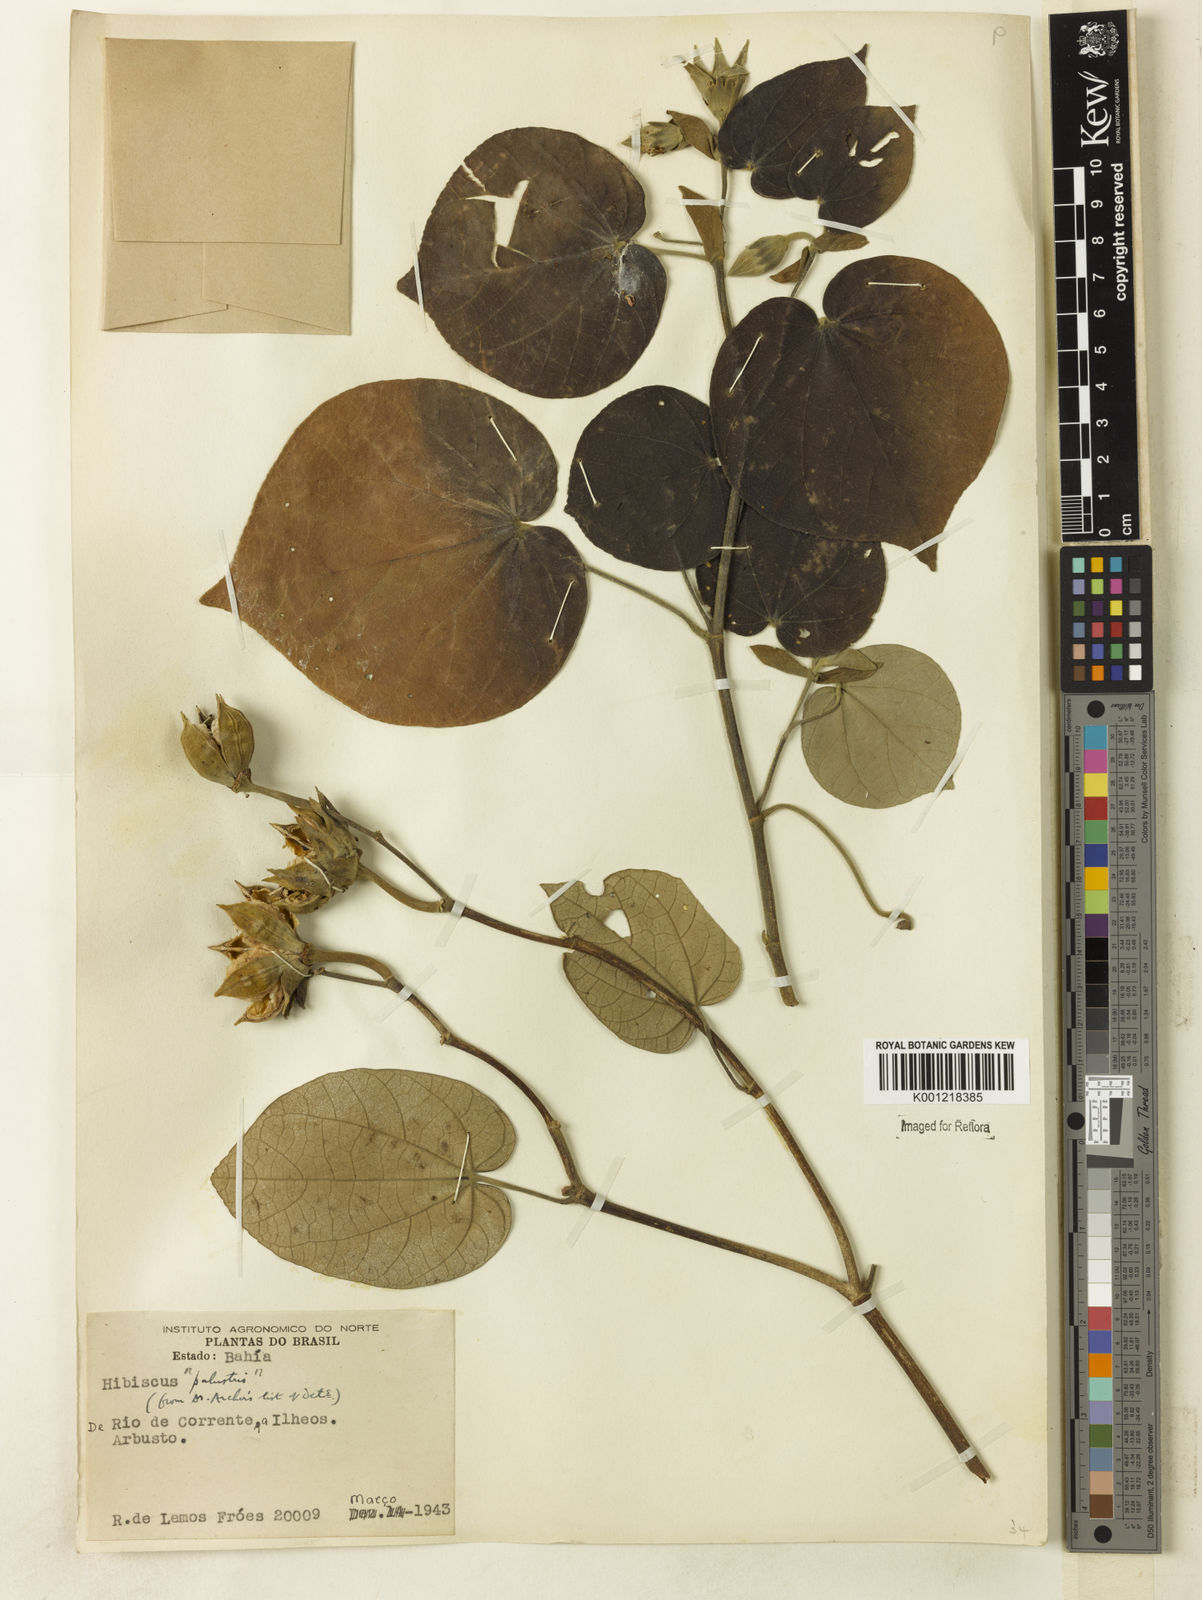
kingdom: Plantae
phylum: Tracheophyta
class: Magnoliopsida
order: Malvales
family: Malvaceae
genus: Hibiscus
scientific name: Hibiscus
